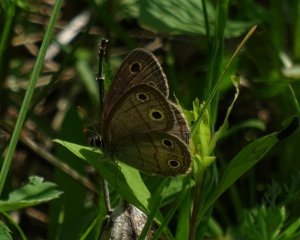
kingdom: Animalia
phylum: Arthropoda
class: Insecta
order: Lepidoptera
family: Nymphalidae
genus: Euptychia
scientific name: Euptychia cymela
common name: Little Wood Satyr
